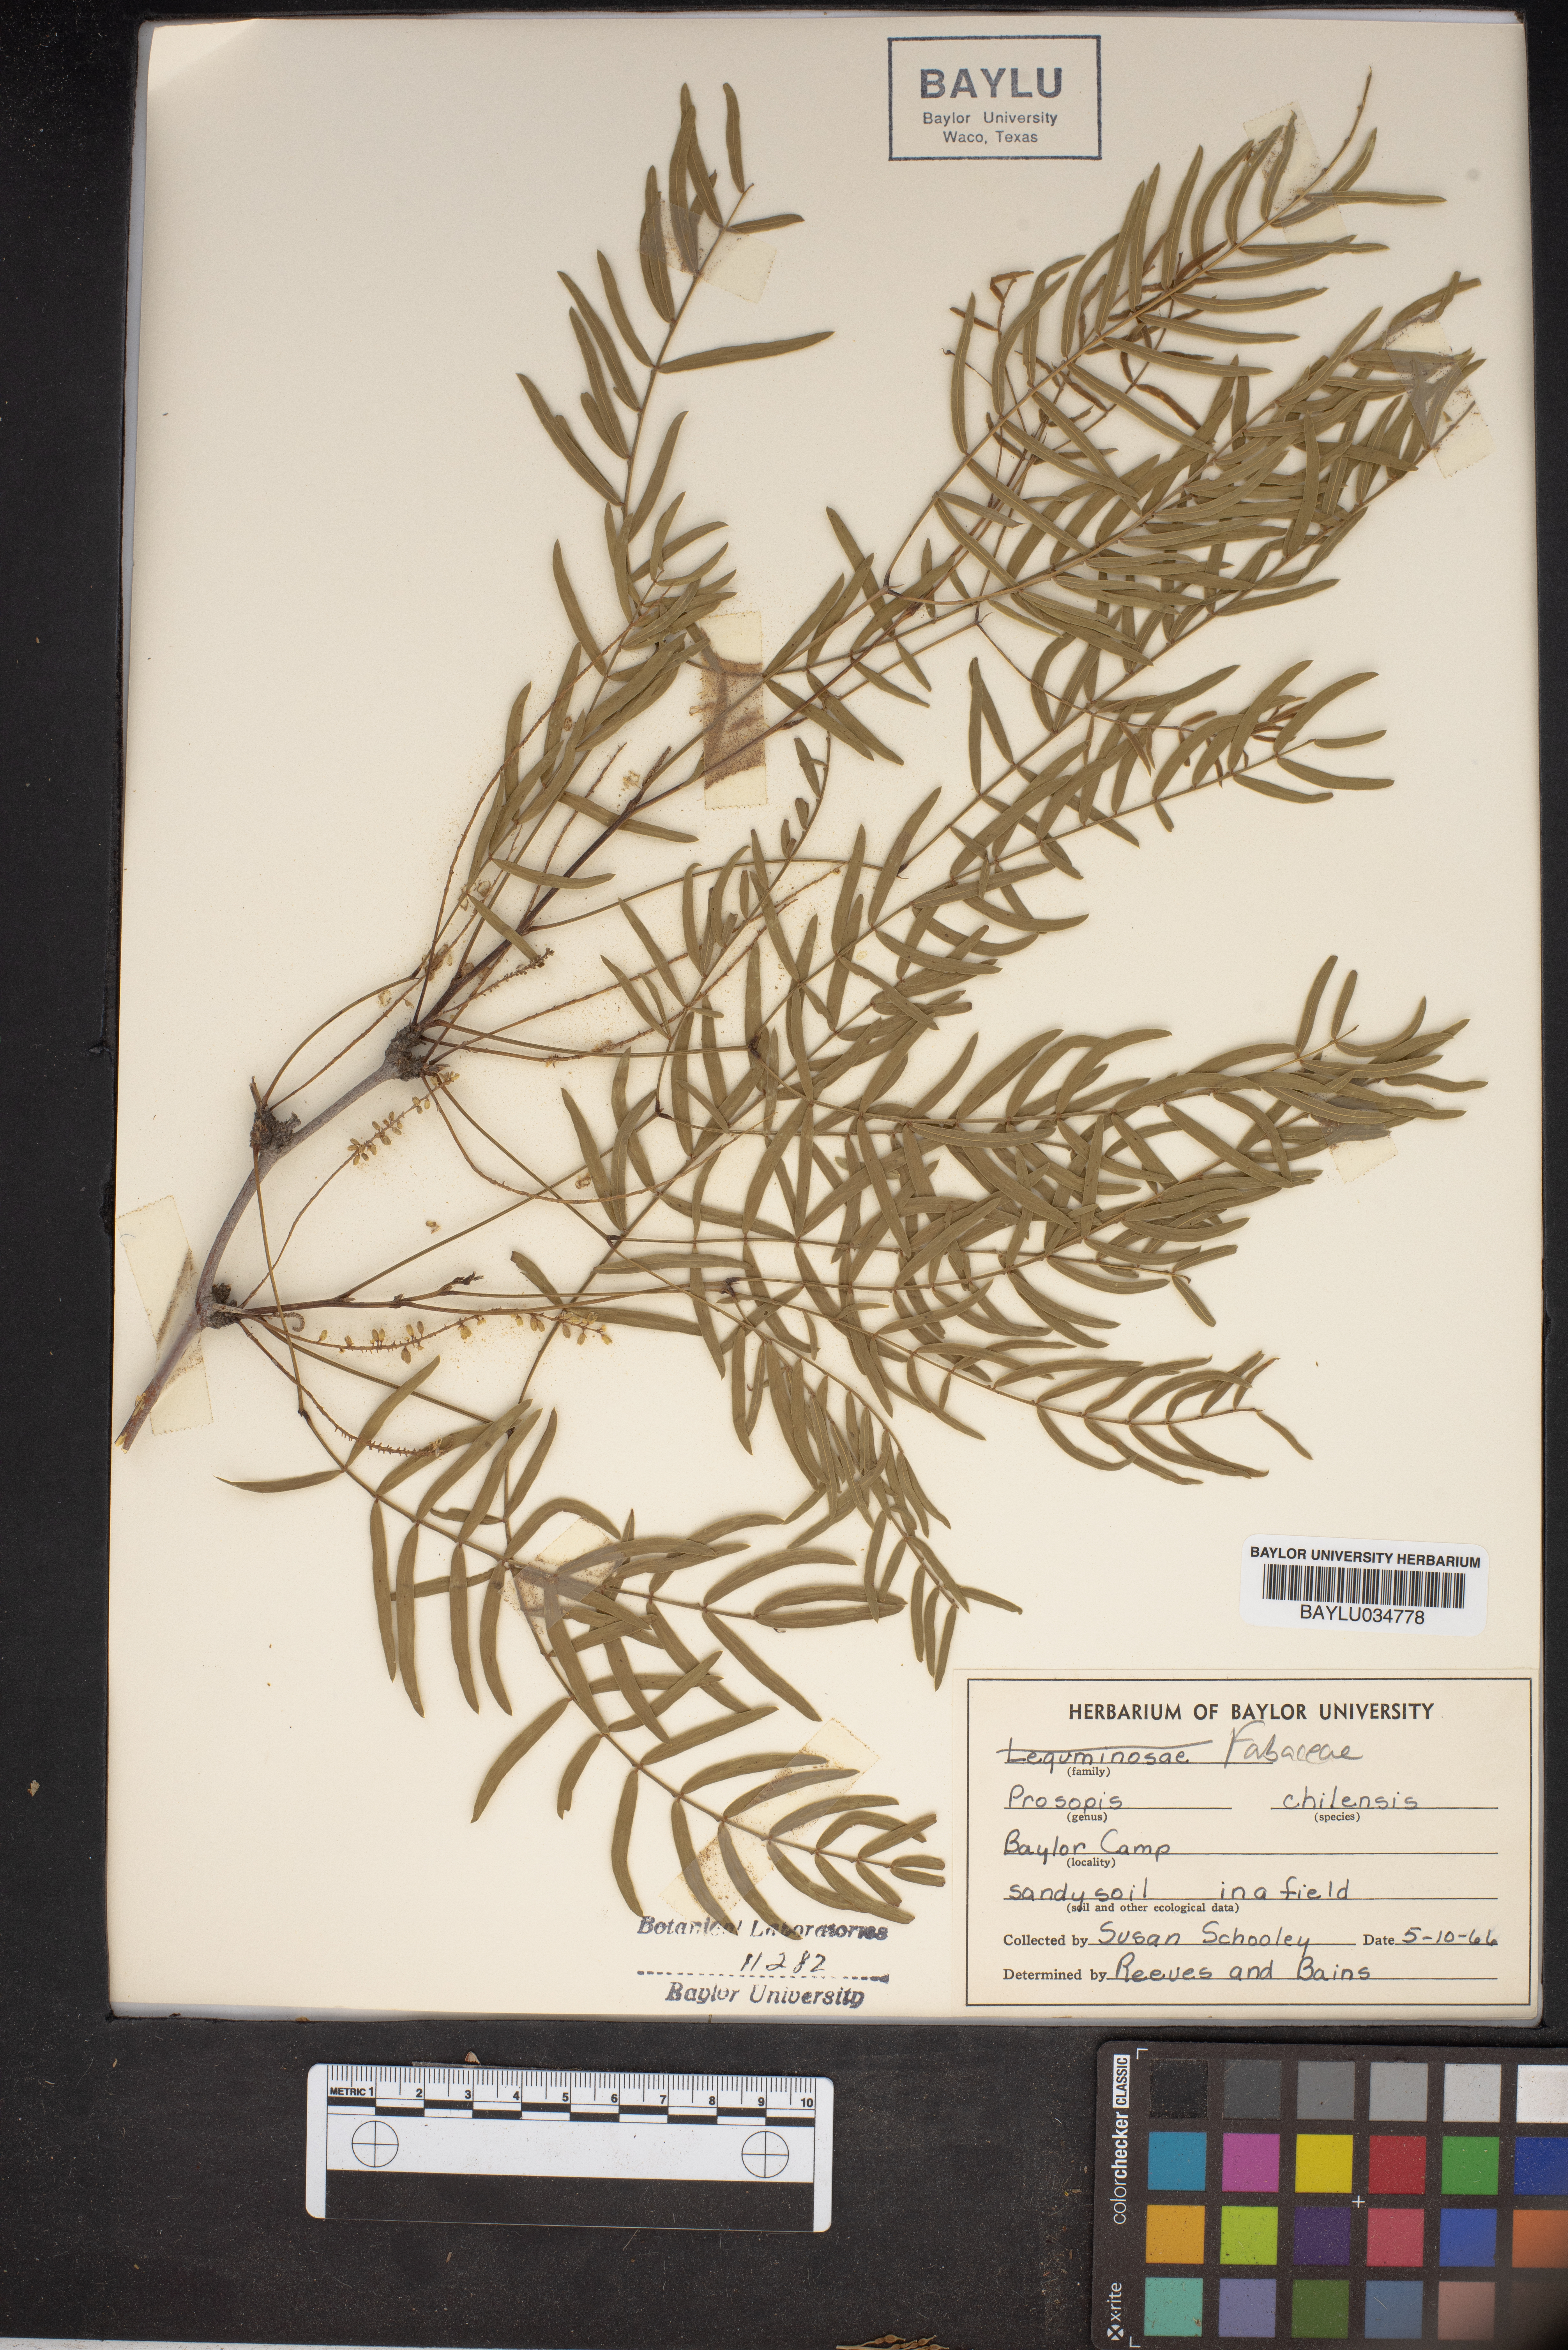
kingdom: Plantae
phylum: Tracheophyta
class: Magnoliopsida
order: Fabales
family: Fabaceae
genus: Prosopis
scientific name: Prosopis chilensis
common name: Chilean algarrobo
